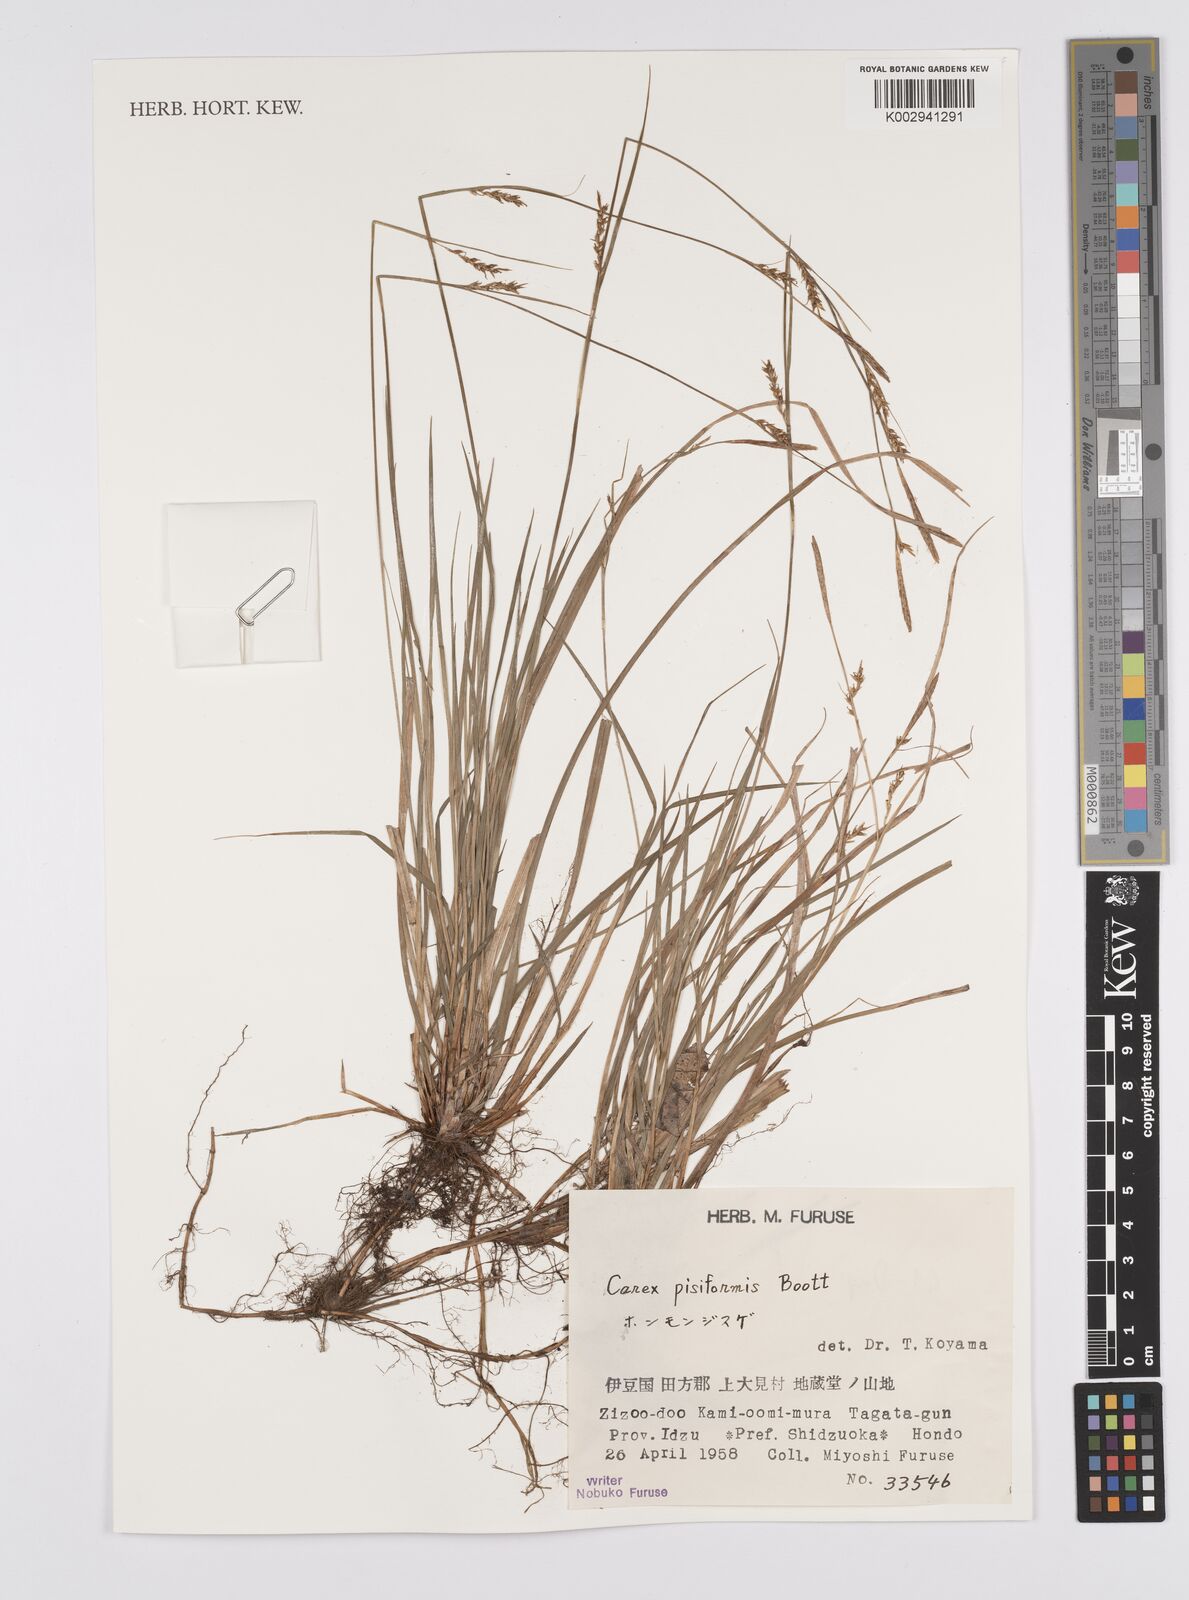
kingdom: Plantae
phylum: Tracheophyta
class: Liliopsida
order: Poales
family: Cyperaceae
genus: Carex
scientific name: Carex pisiformis
